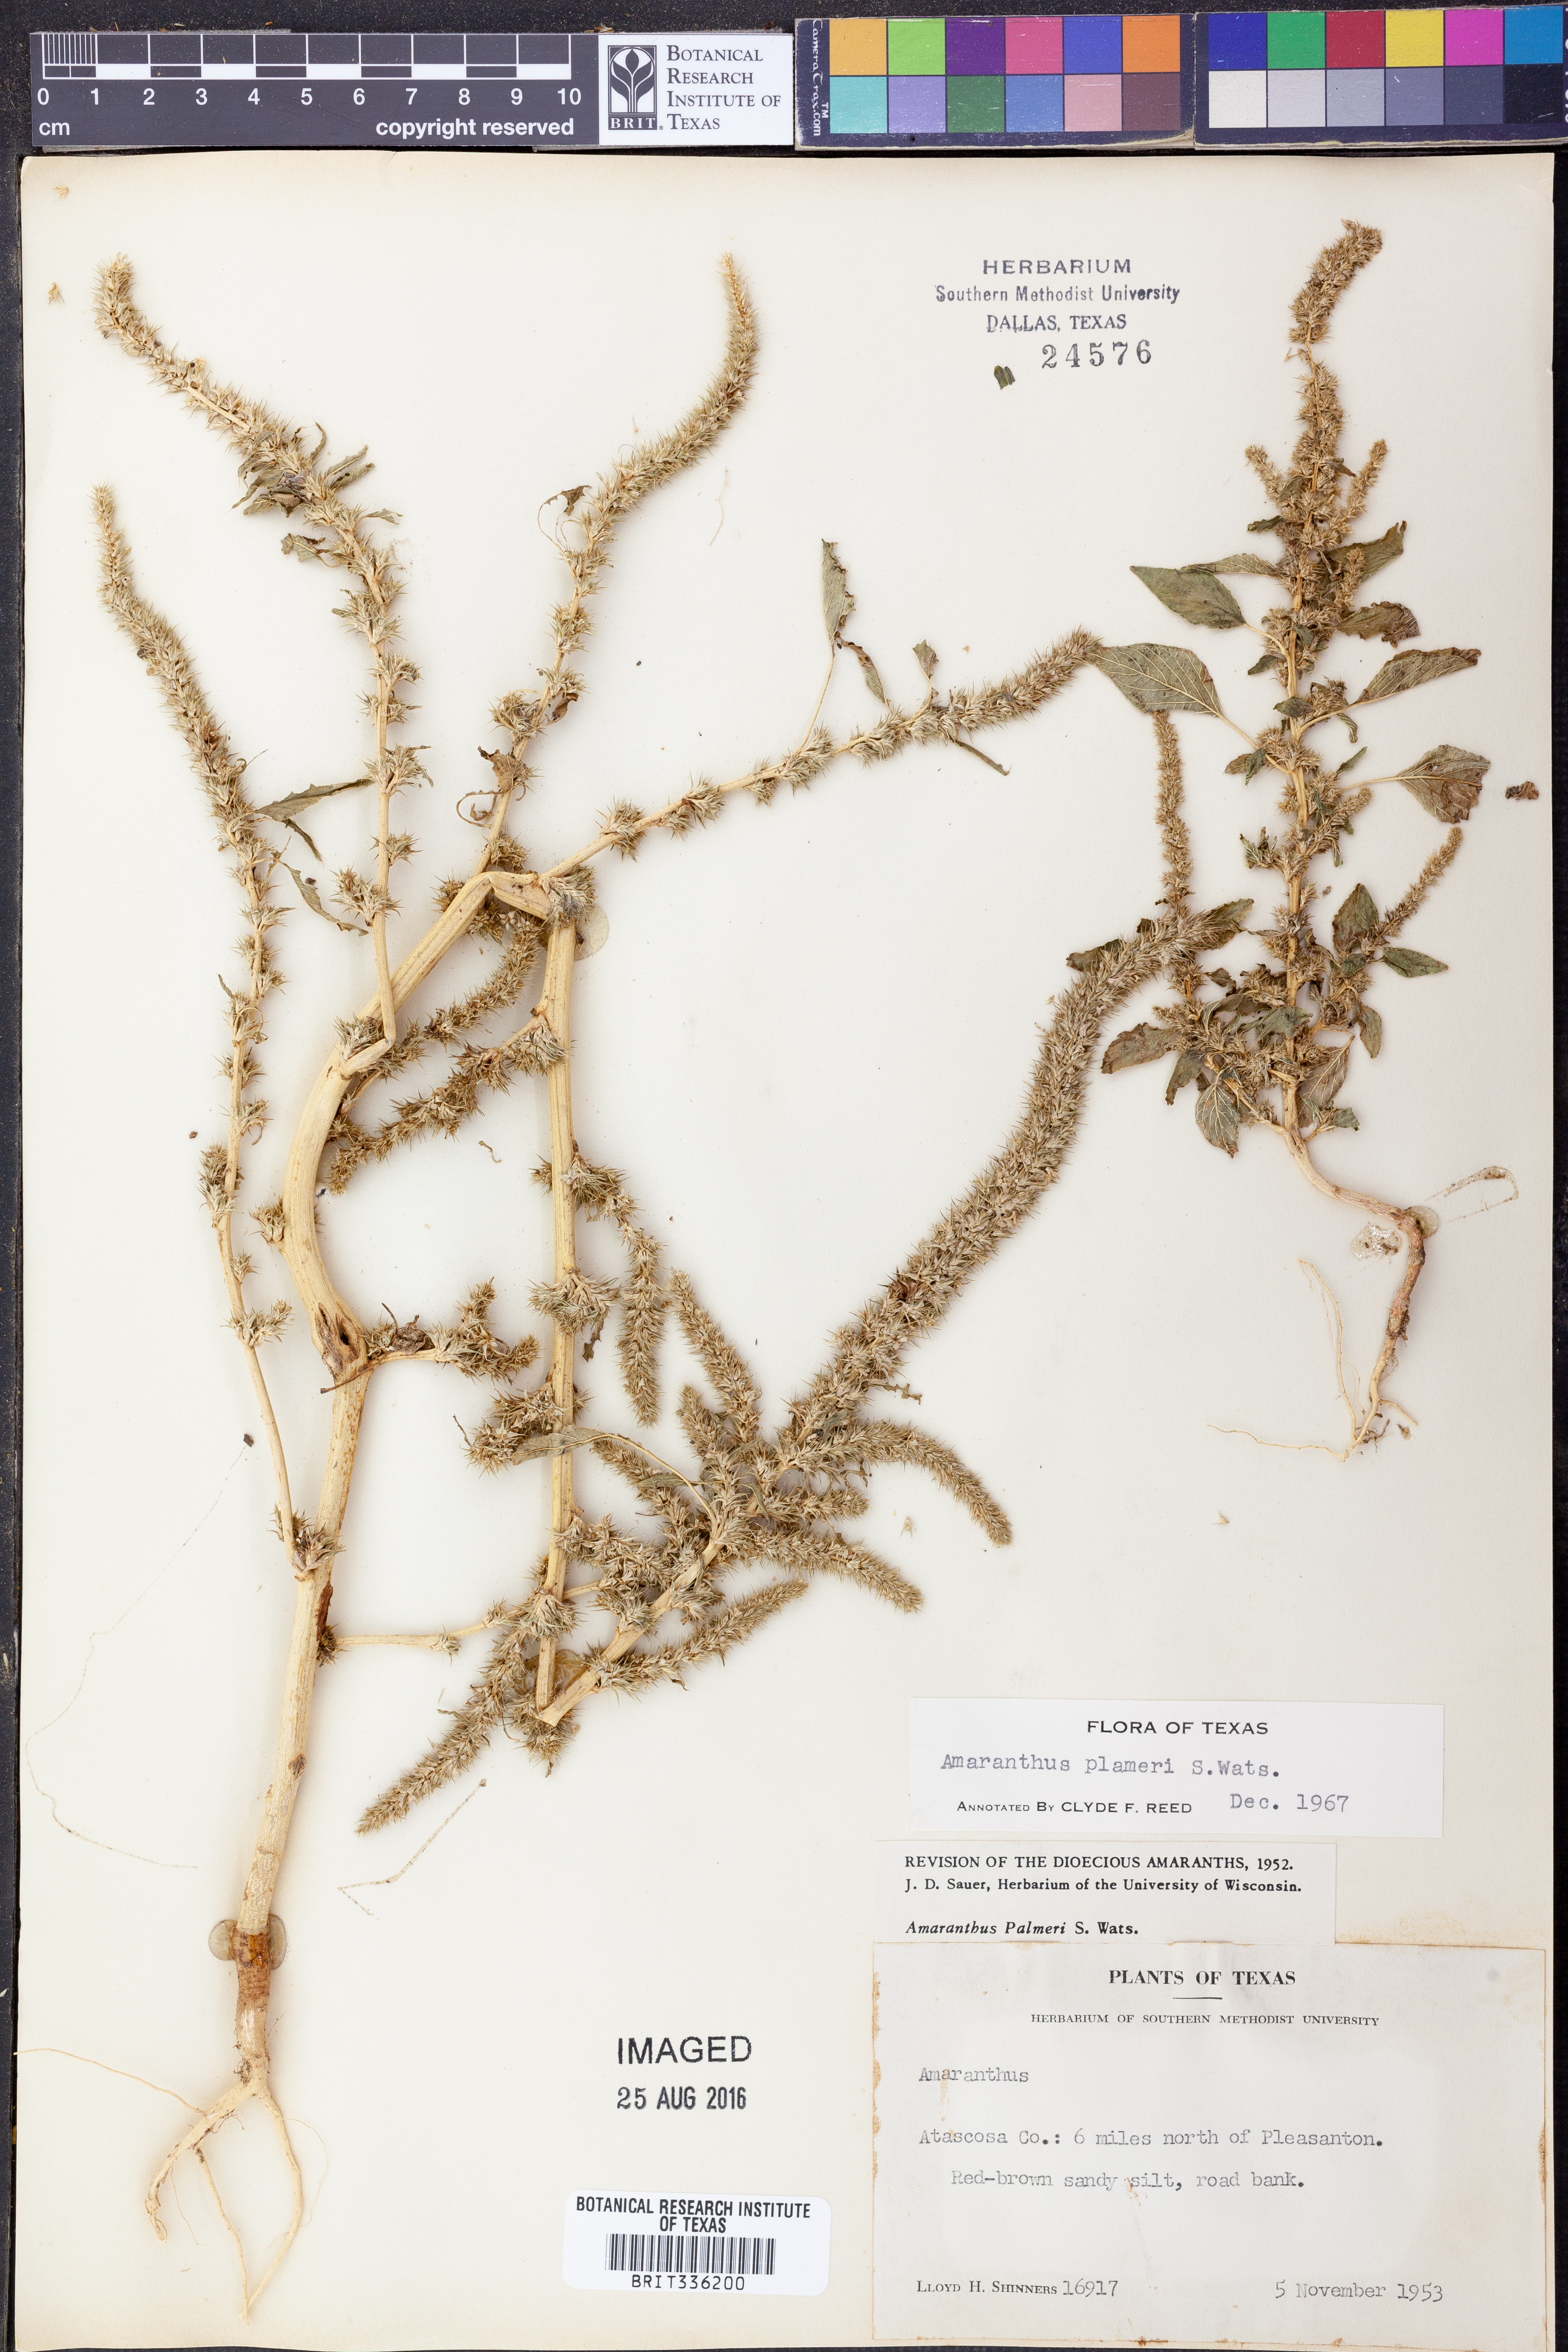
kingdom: Plantae
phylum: Tracheophyta
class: Magnoliopsida
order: Caryophyllales
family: Amaranthaceae
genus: Amaranthus
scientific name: Amaranthus palmeri
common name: Dioecious amaranth
